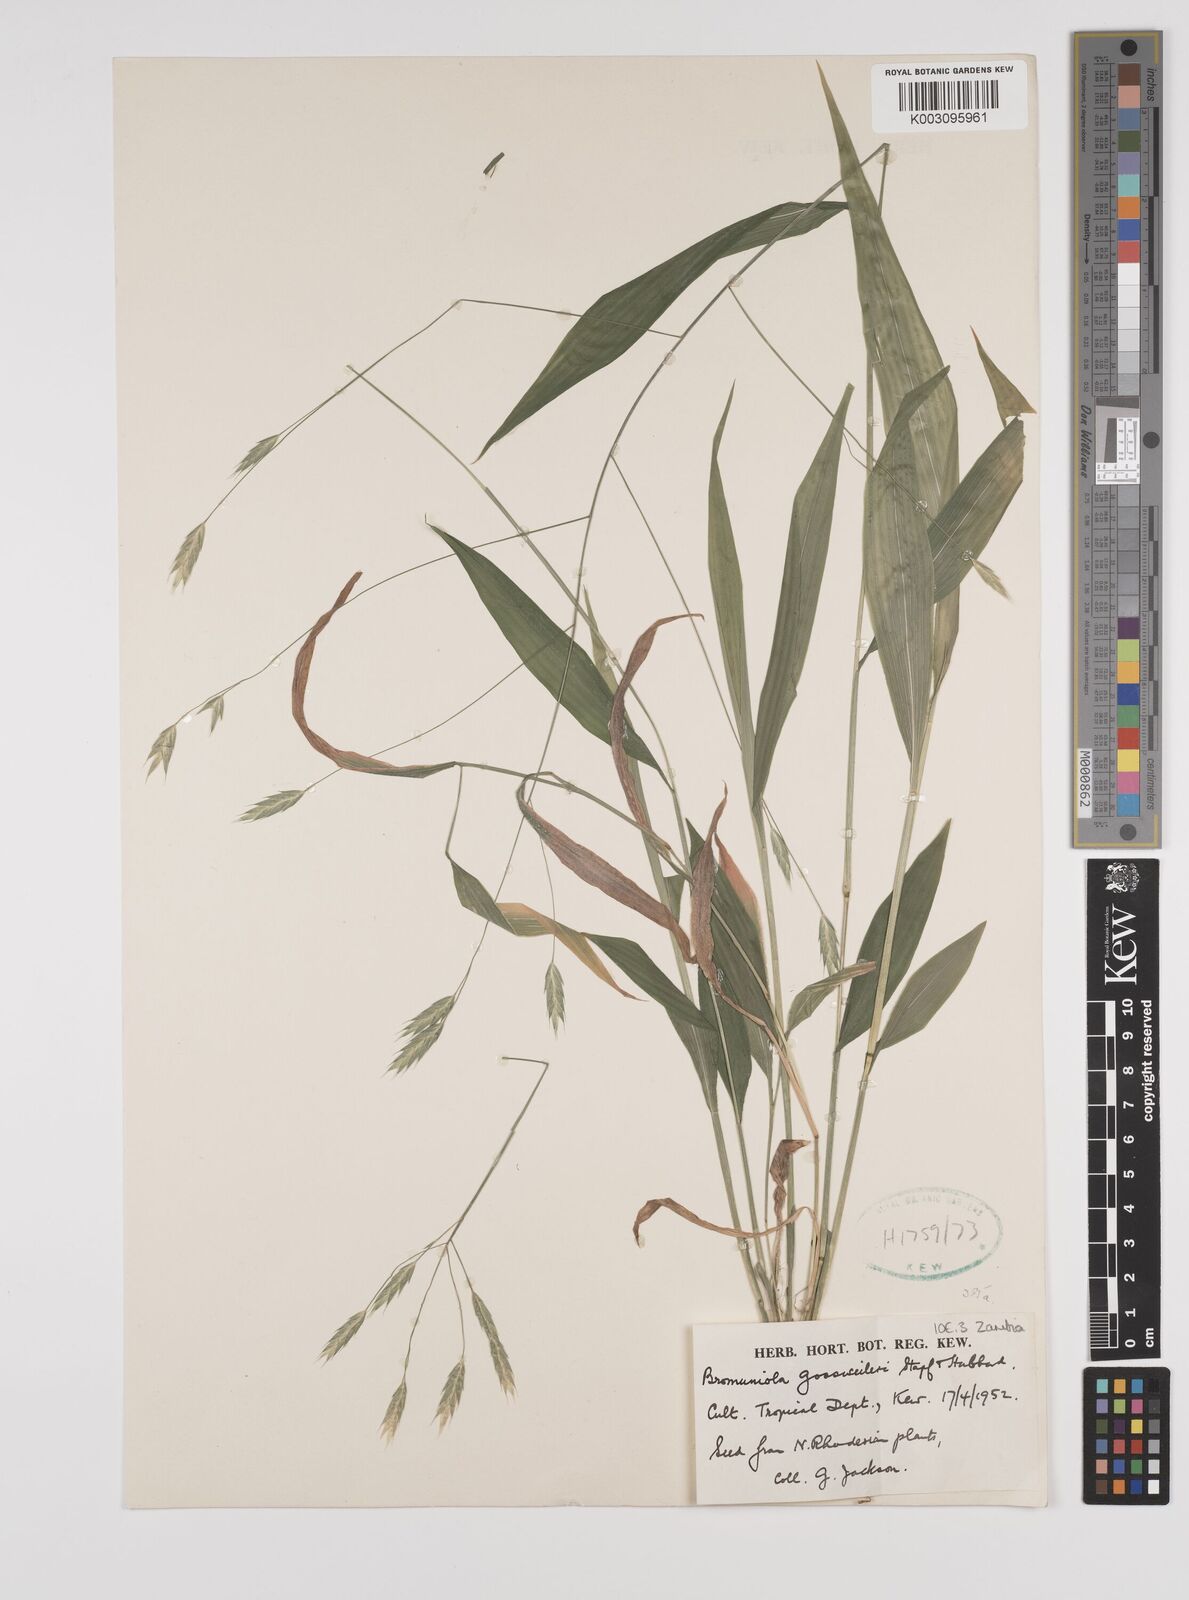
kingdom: Plantae
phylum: Tracheophyta
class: Liliopsida
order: Poales
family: Poaceae
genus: Bromuniola
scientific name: Bromuniola gossweileri
